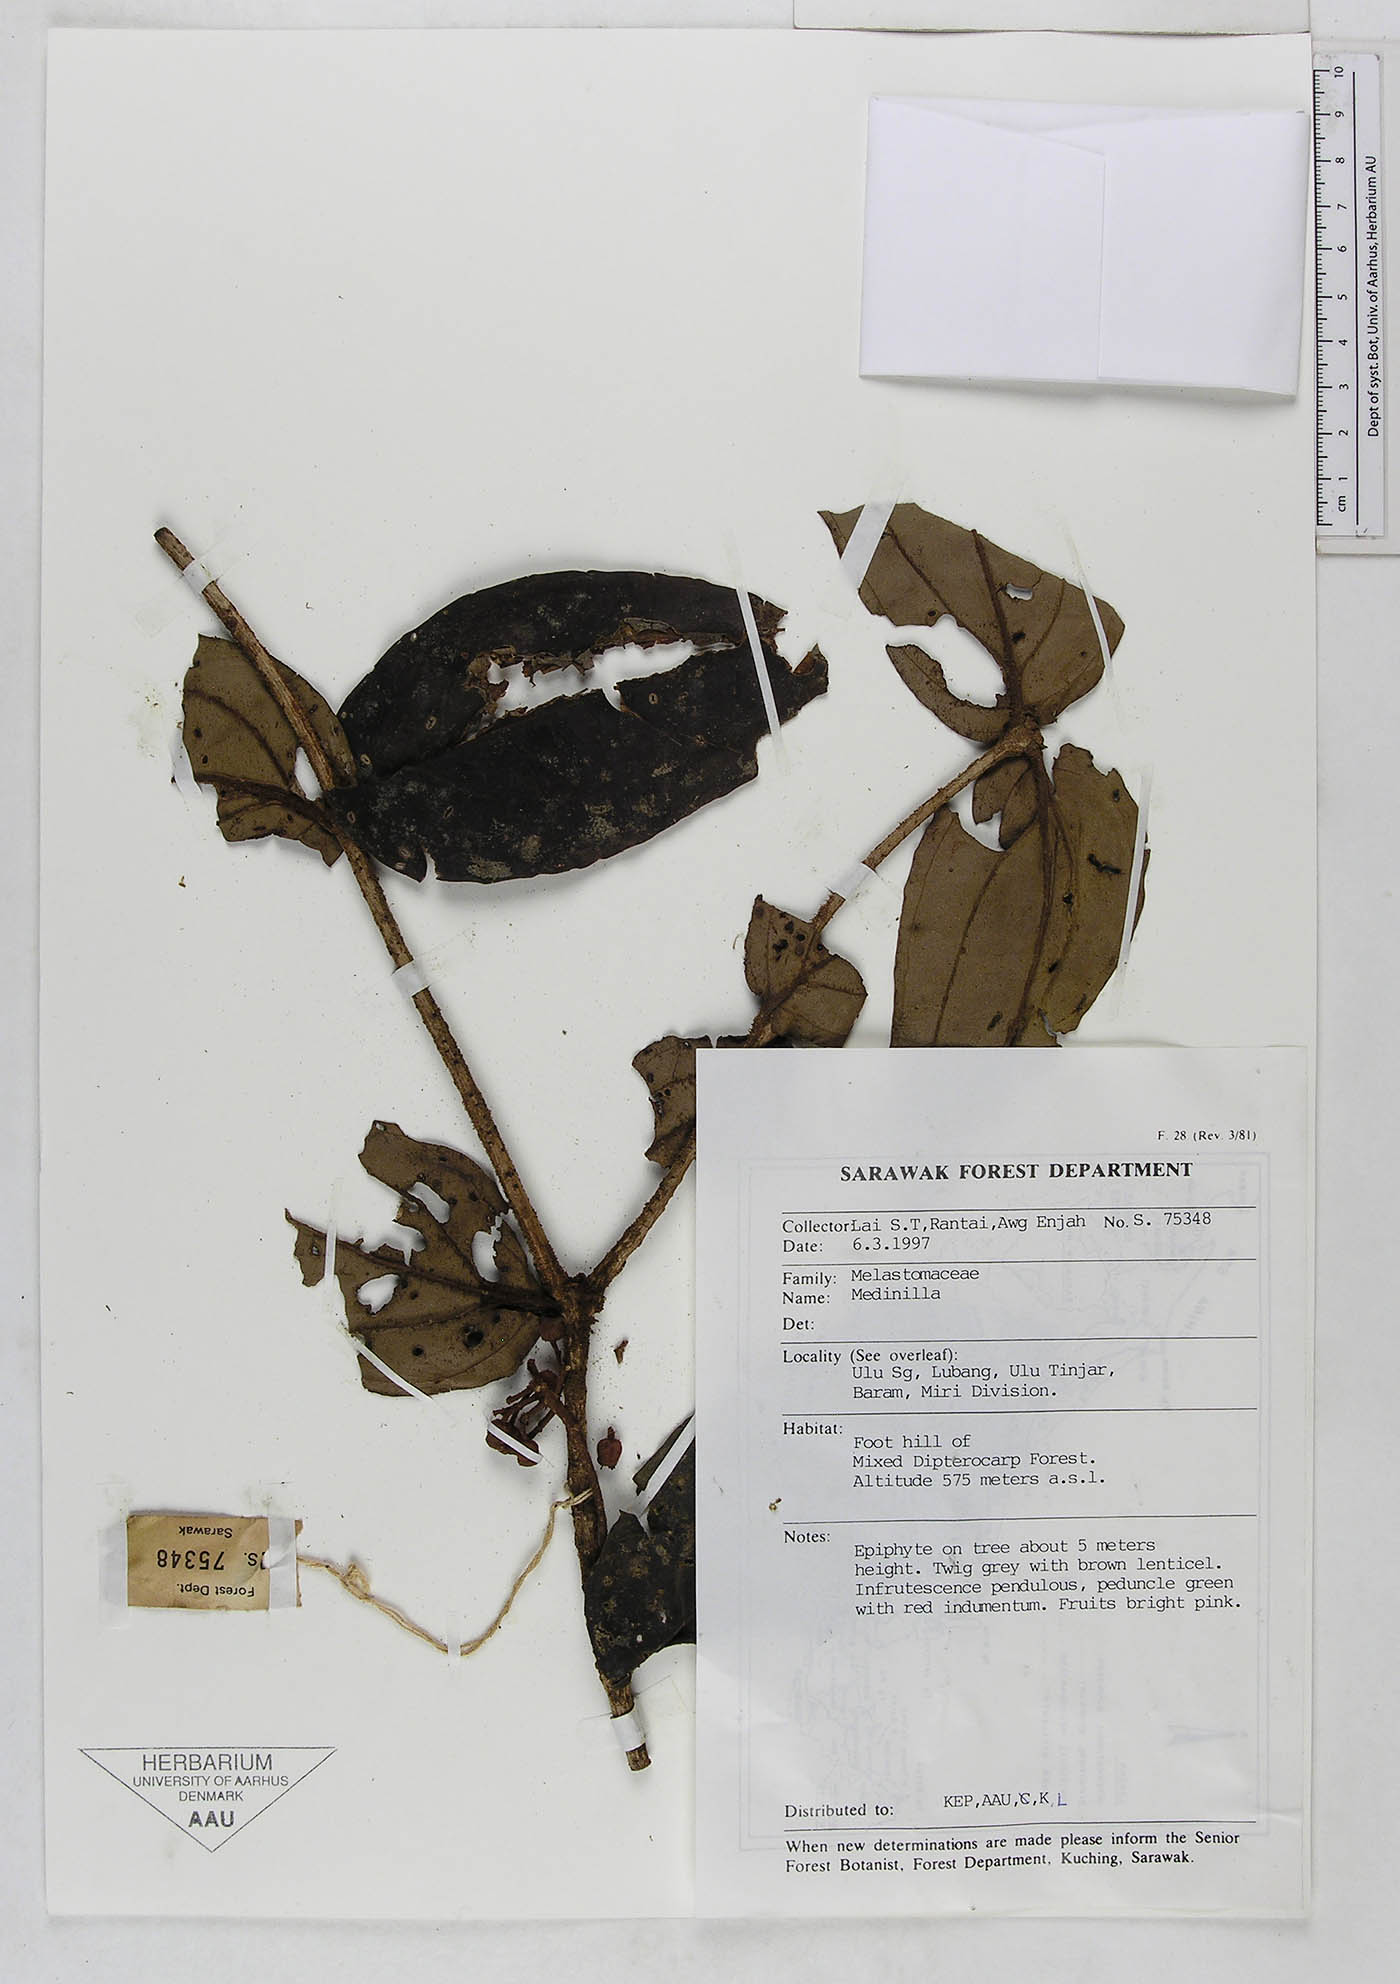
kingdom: Plantae
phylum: Tracheophyta
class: Magnoliopsida
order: Myrtales
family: Melastomataceae
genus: Medinilla
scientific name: Medinilla
